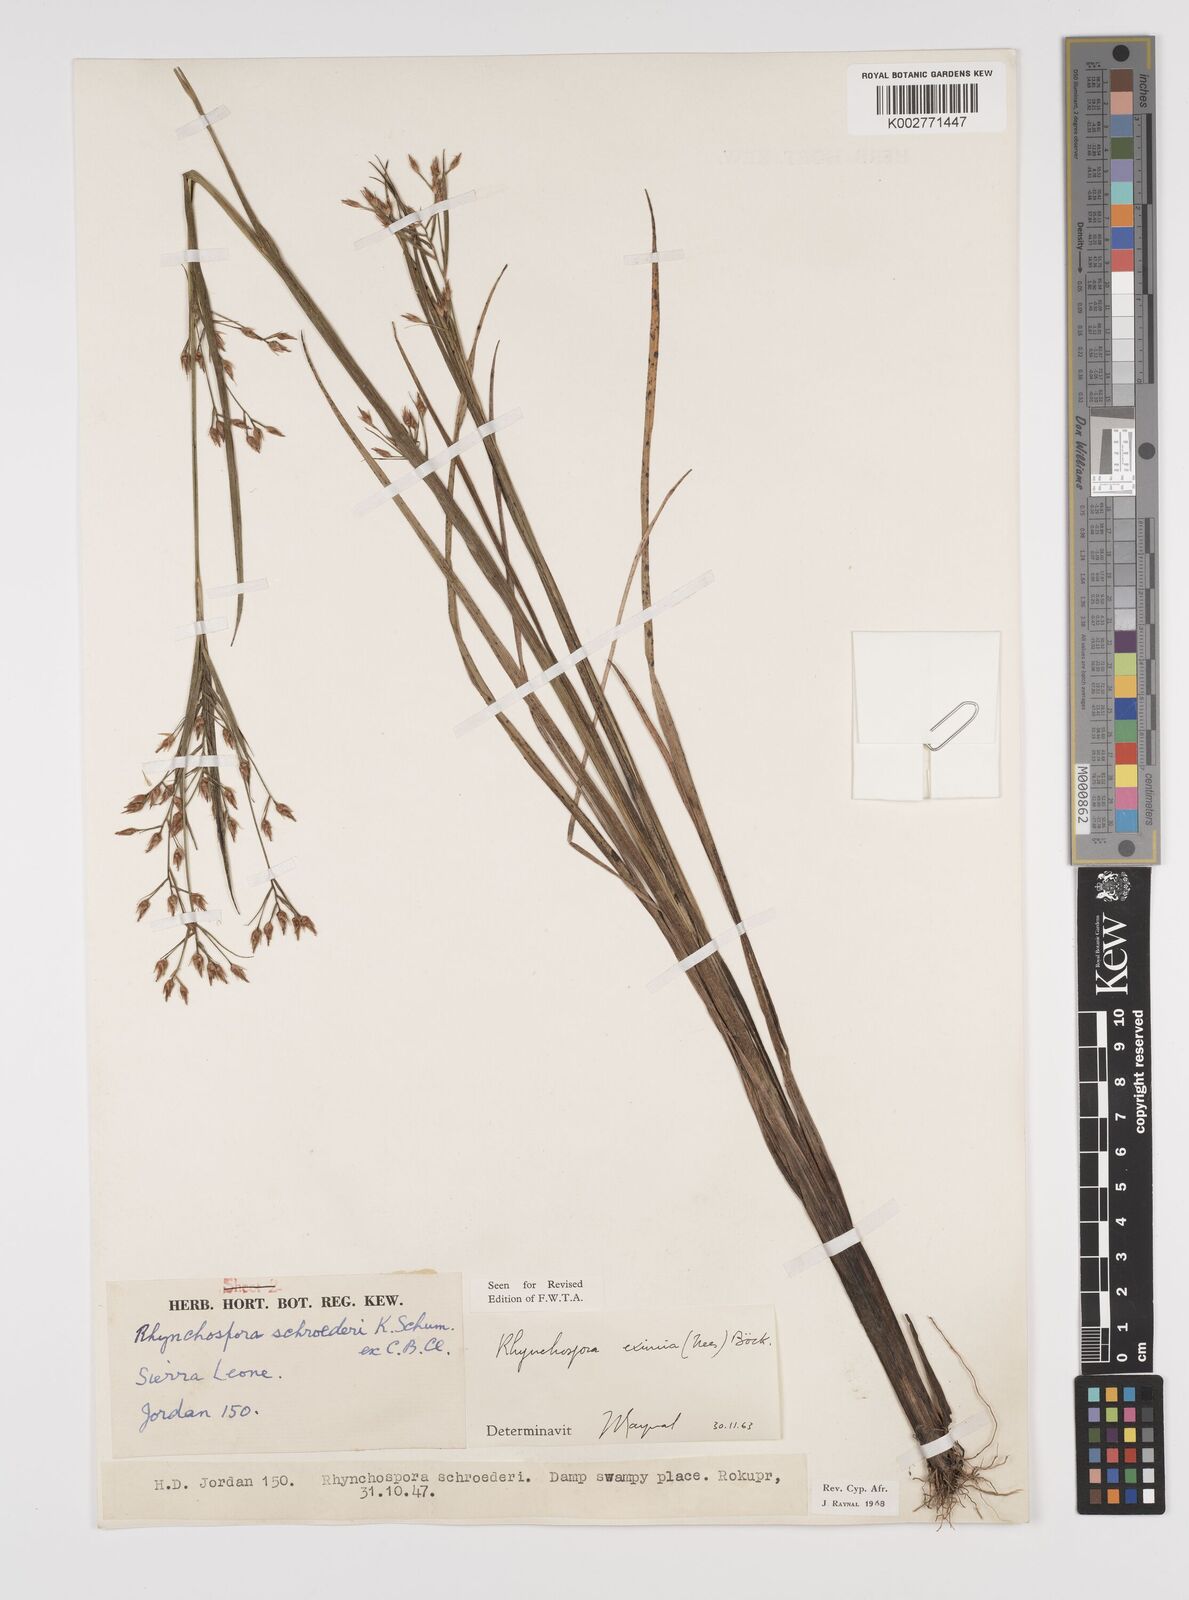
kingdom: Plantae
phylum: Tracheophyta
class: Liliopsida
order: Poales
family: Cyperaceae
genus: Rhynchospora
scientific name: Rhynchospora eximia
